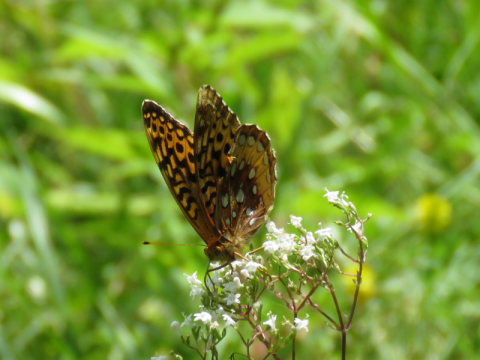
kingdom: Animalia
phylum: Arthropoda
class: Insecta
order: Lepidoptera
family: Nymphalidae
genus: Speyeria
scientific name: Speyeria cybele
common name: Great Spangled Fritillary
